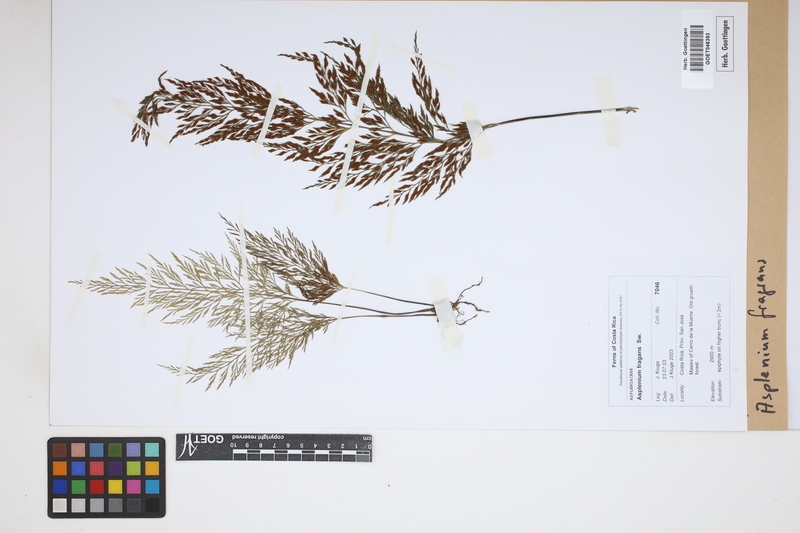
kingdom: Plantae
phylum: Tracheophyta
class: Polypodiopsida
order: Polypodiales
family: Aspleniaceae
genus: Asplenium
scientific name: Asplenium fragrans
